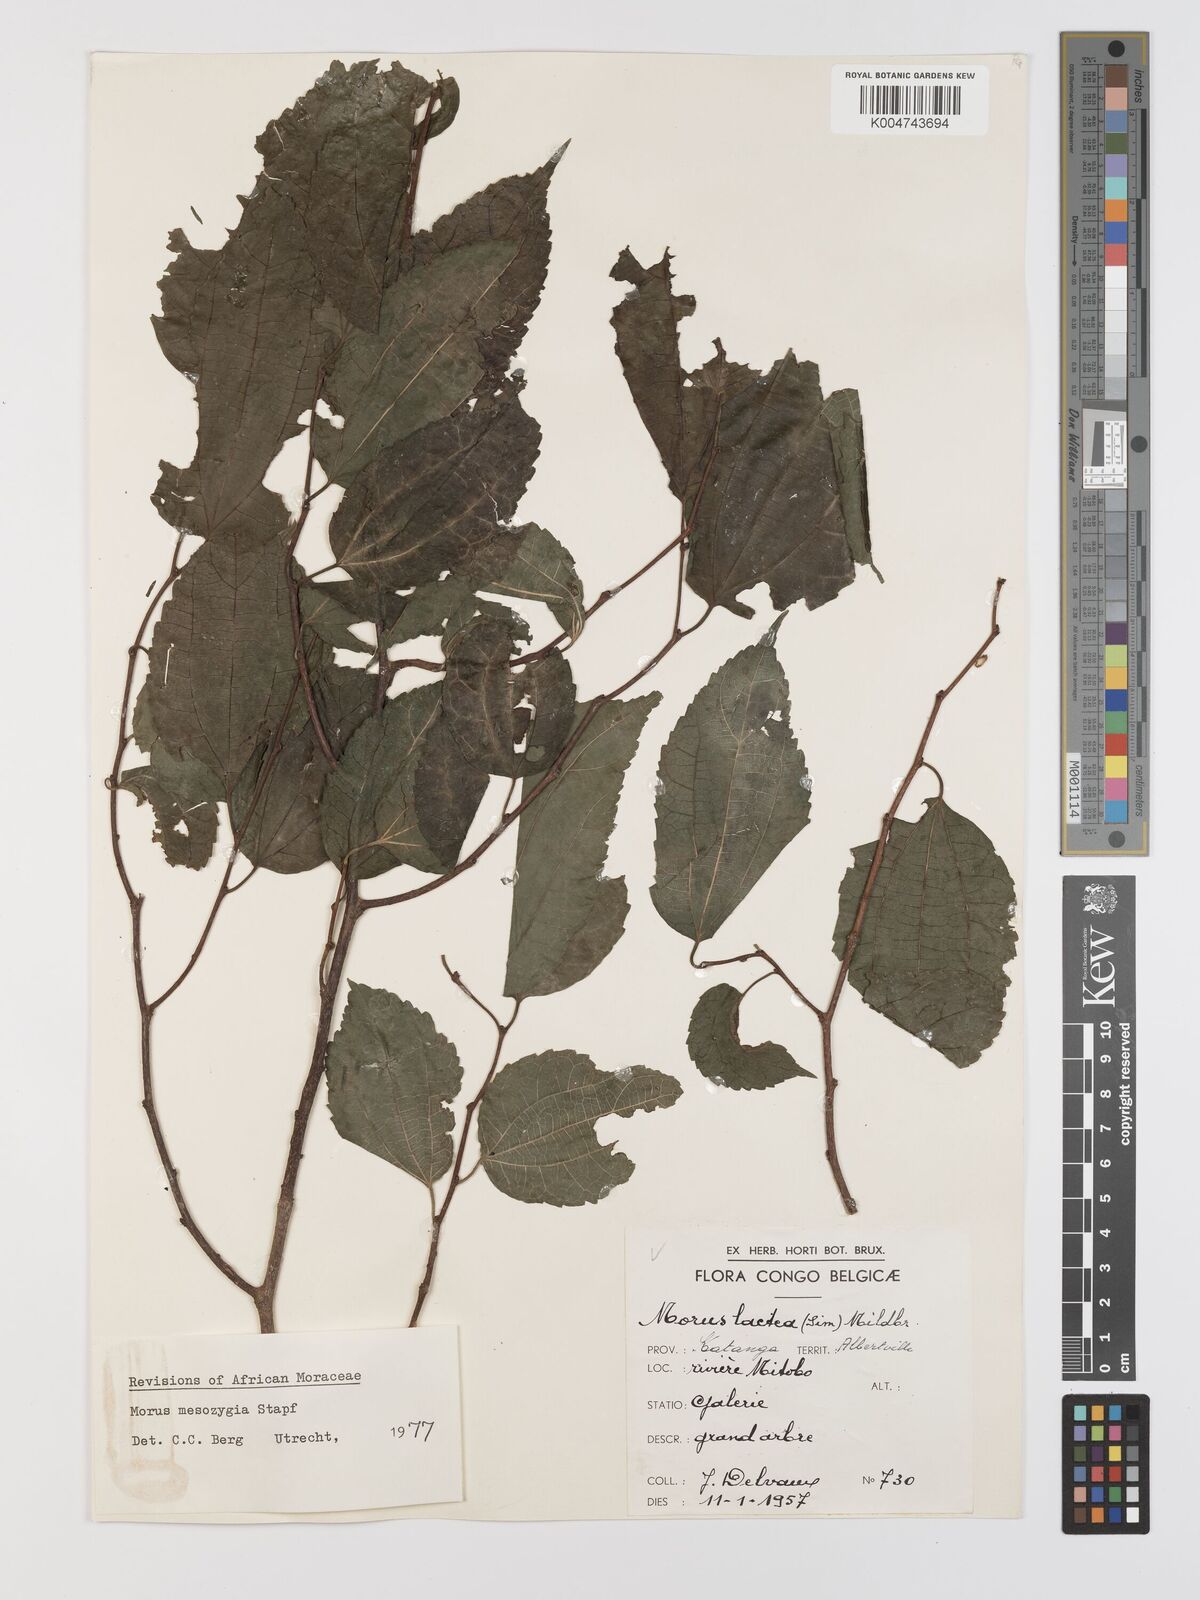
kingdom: Plantae
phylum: Tracheophyta
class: Magnoliopsida
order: Rosales
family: Moraceae
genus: Afromorus
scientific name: Afromorus mesozygia
